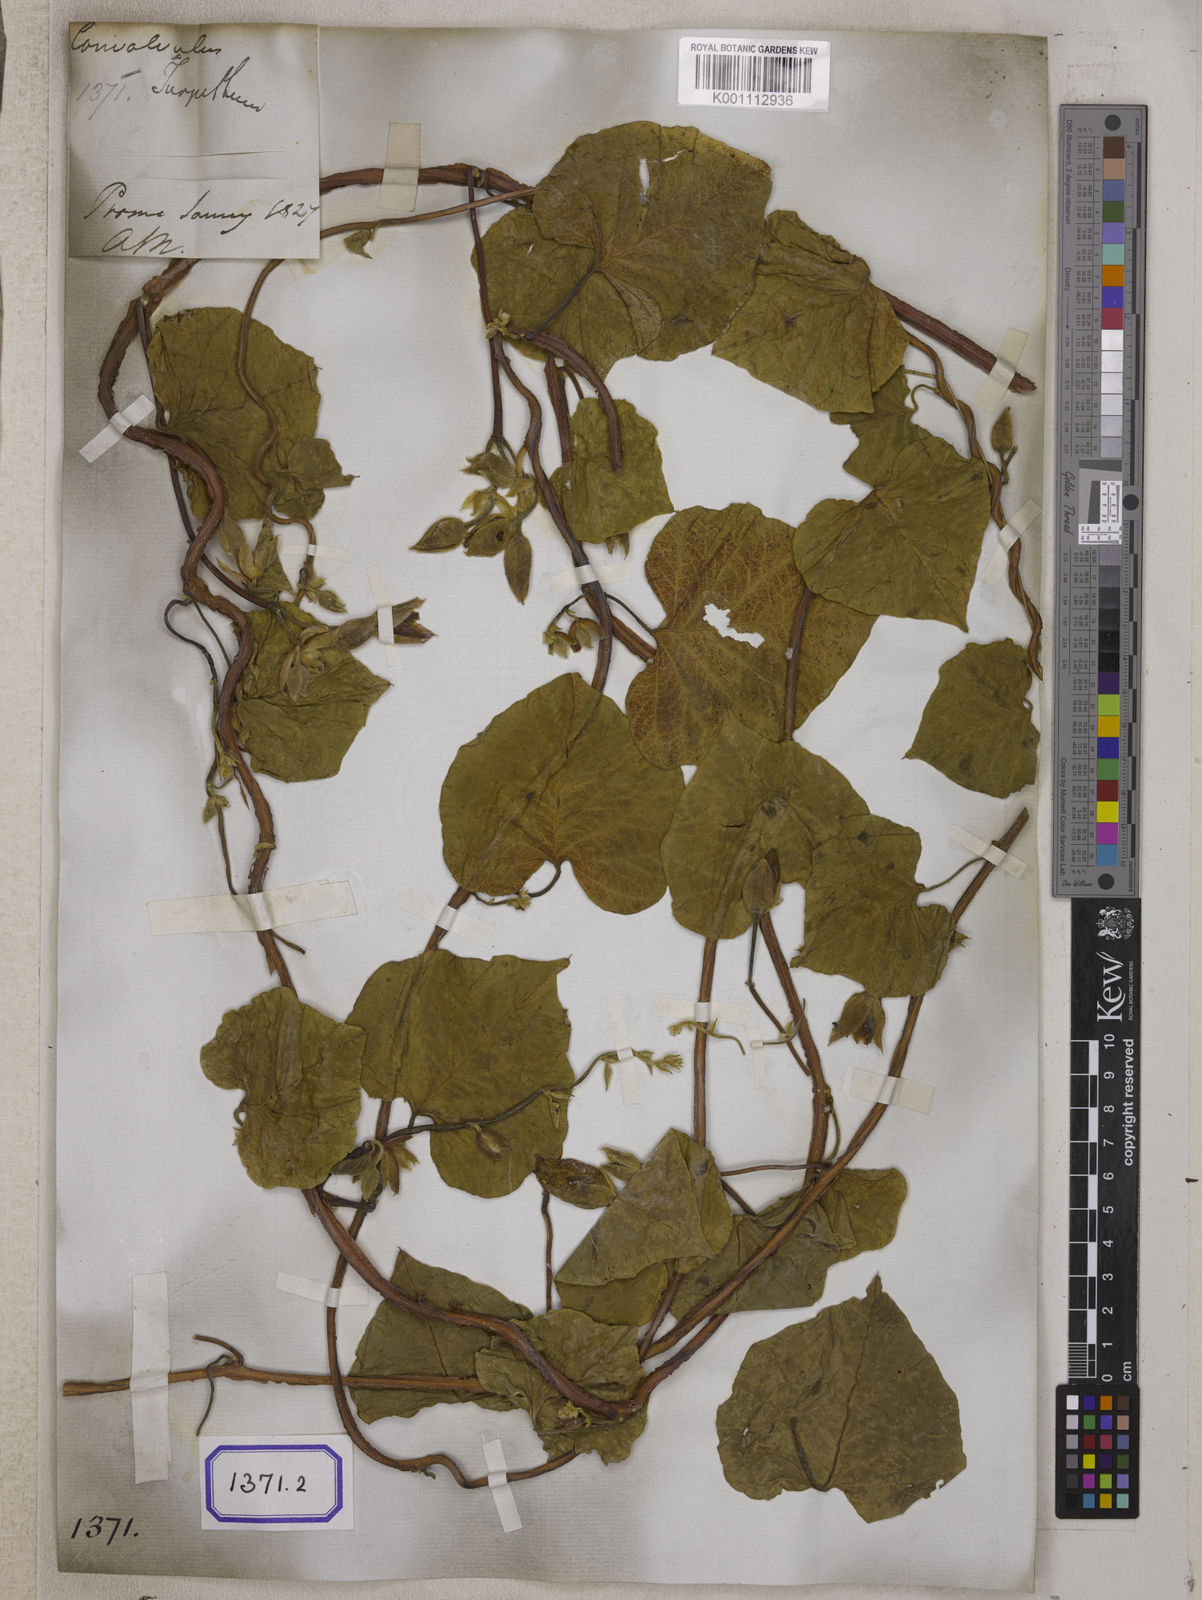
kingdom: Plantae
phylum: Tracheophyta
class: Magnoliopsida
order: Solanales
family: Convolvulaceae
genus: Operculina
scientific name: Operculina turpethum
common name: Transparent wood-rose
